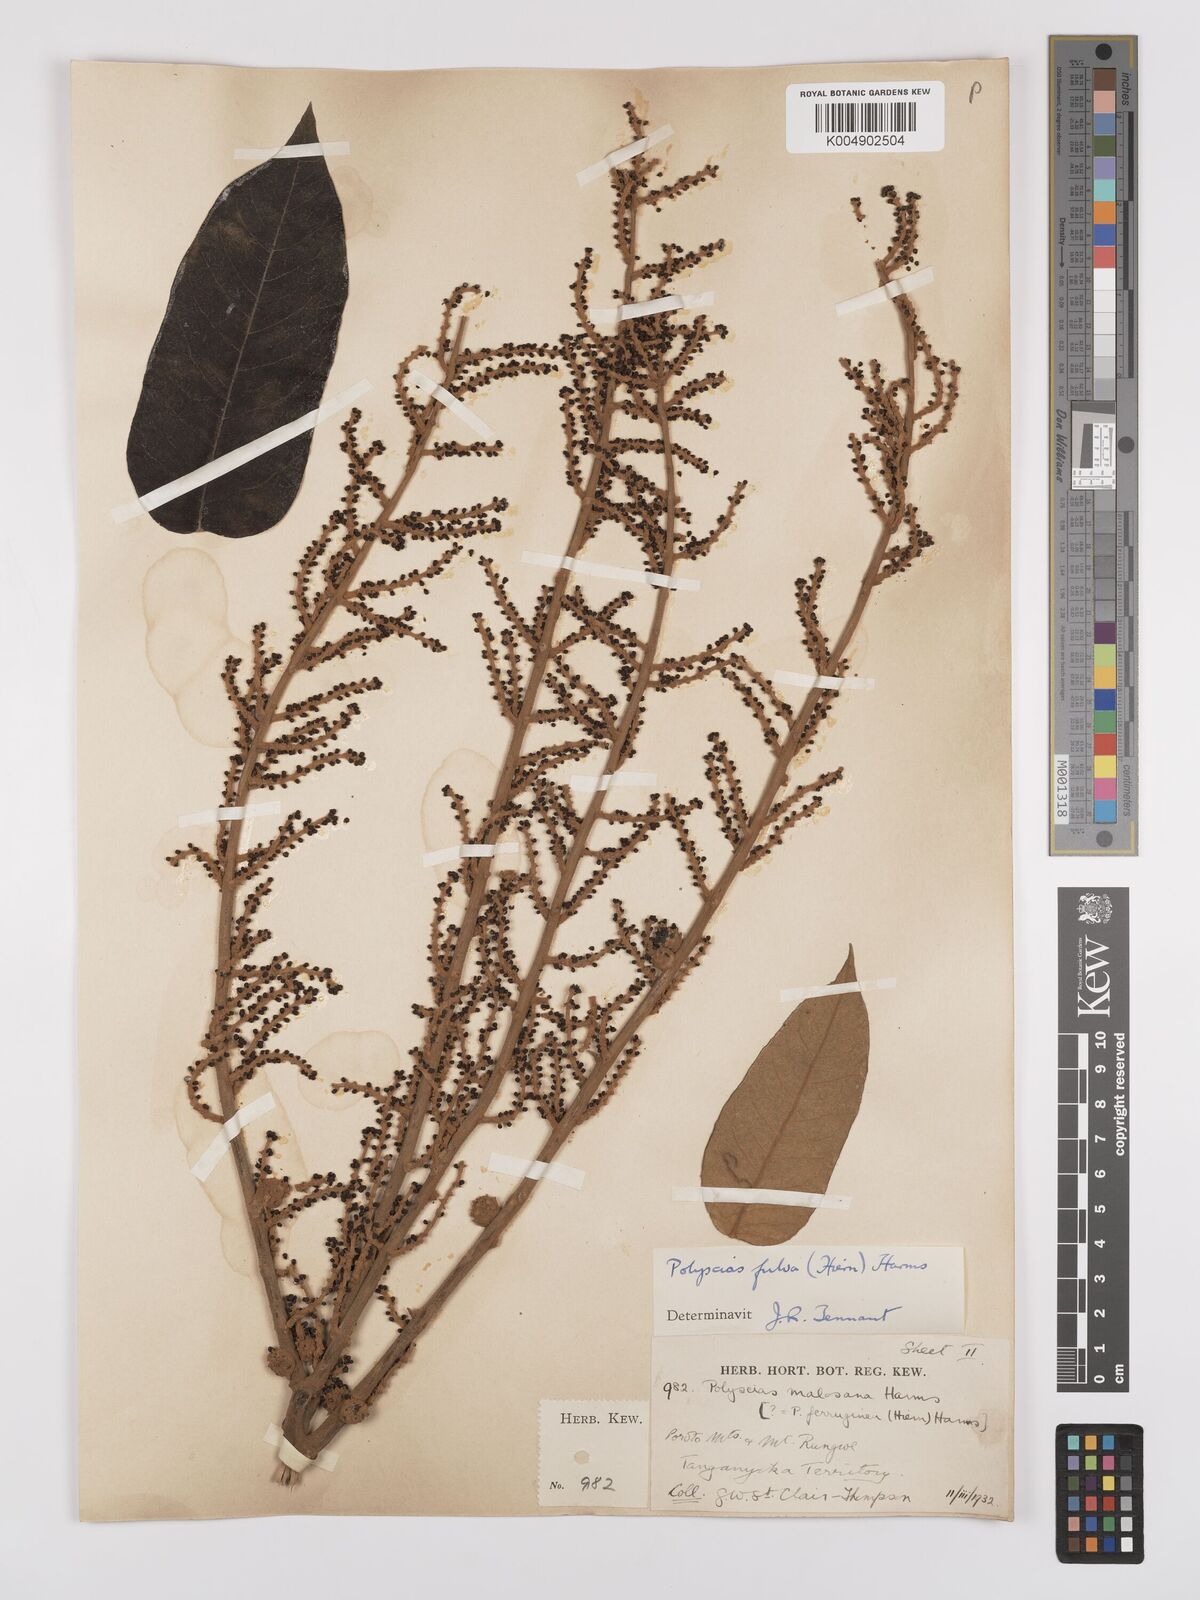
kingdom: Plantae
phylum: Tracheophyta
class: Magnoliopsida
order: Apiales
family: Araliaceae
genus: Polyscias
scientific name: Polyscias fulva
